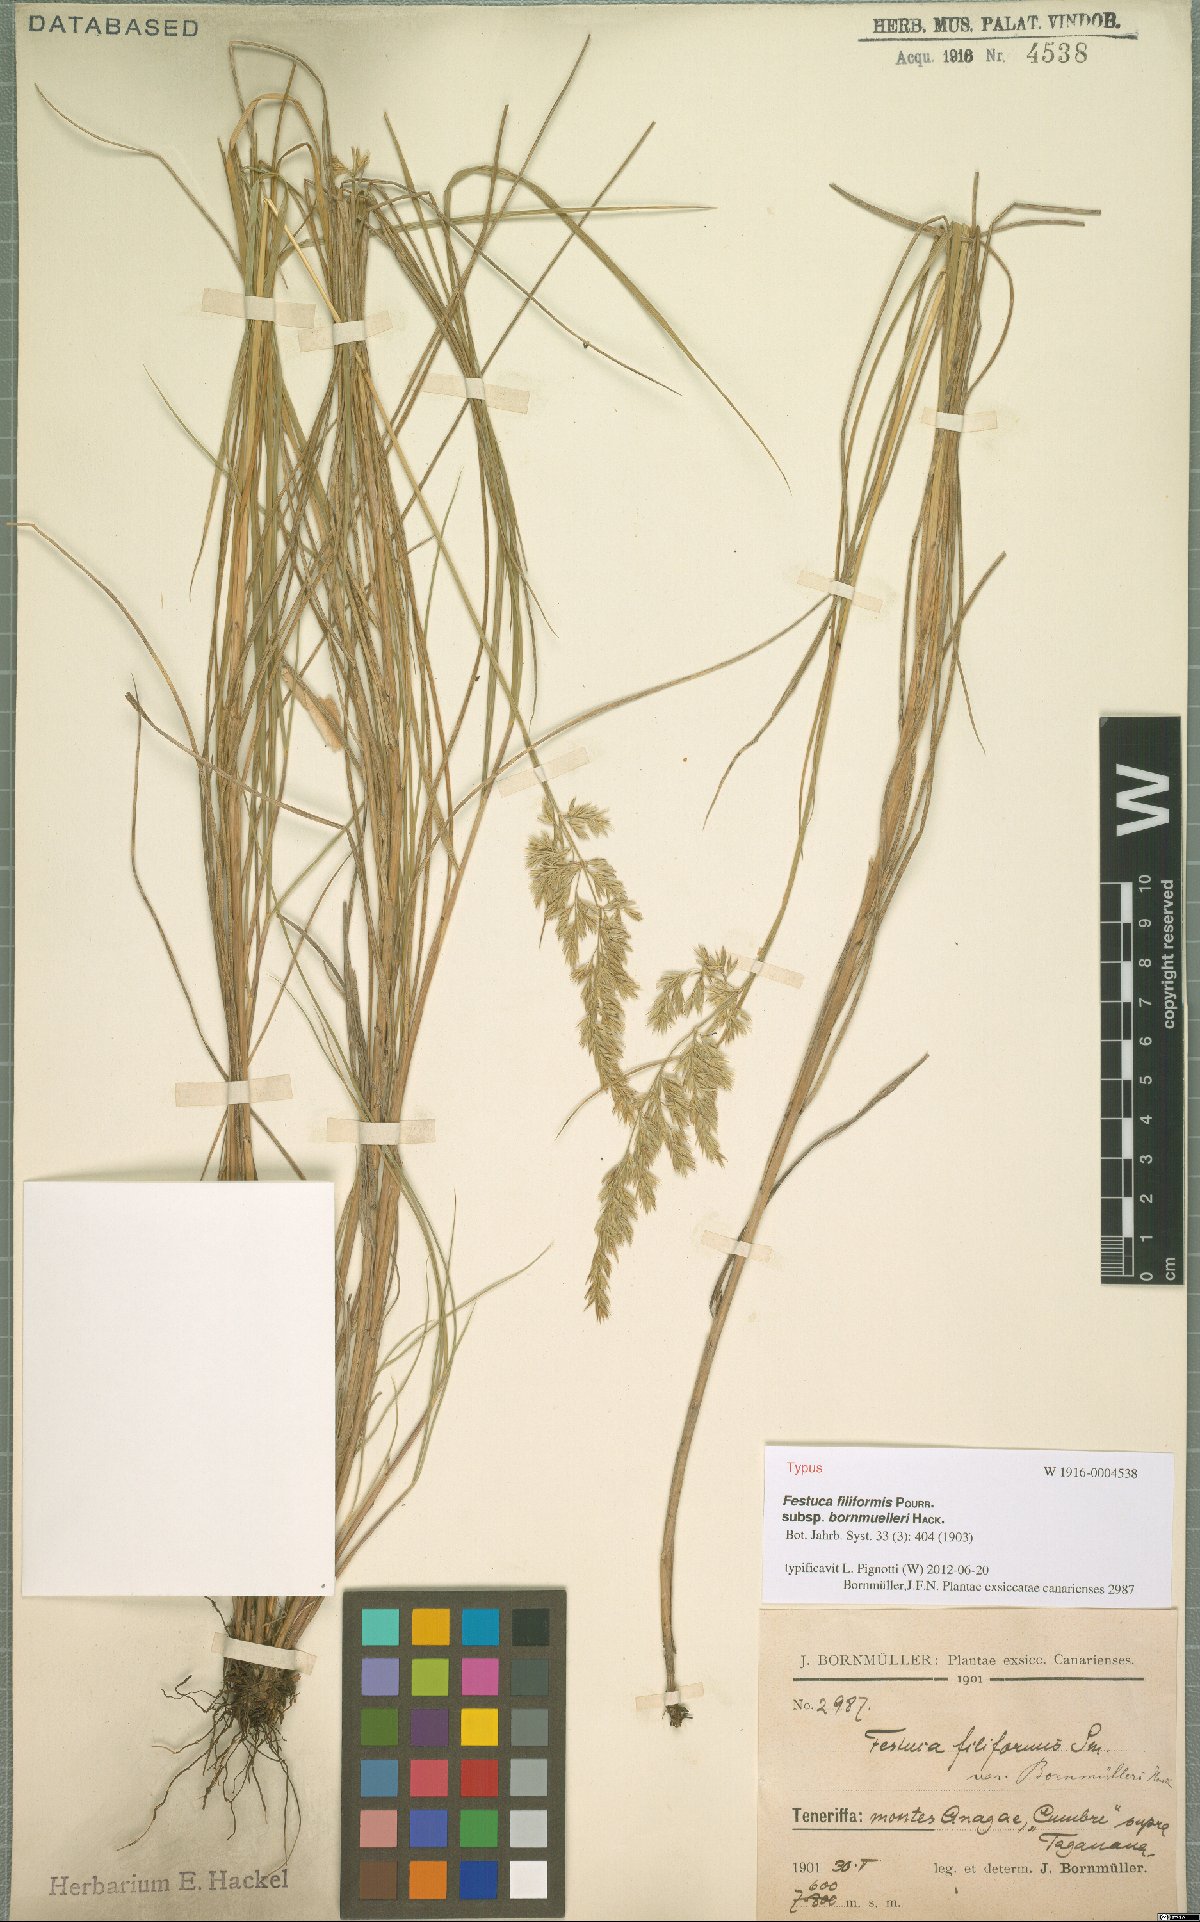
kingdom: Plantae
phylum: Tracheophyta
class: Liliopsida
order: Poales
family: Poaceae
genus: Festuca
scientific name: Festuca agustini
